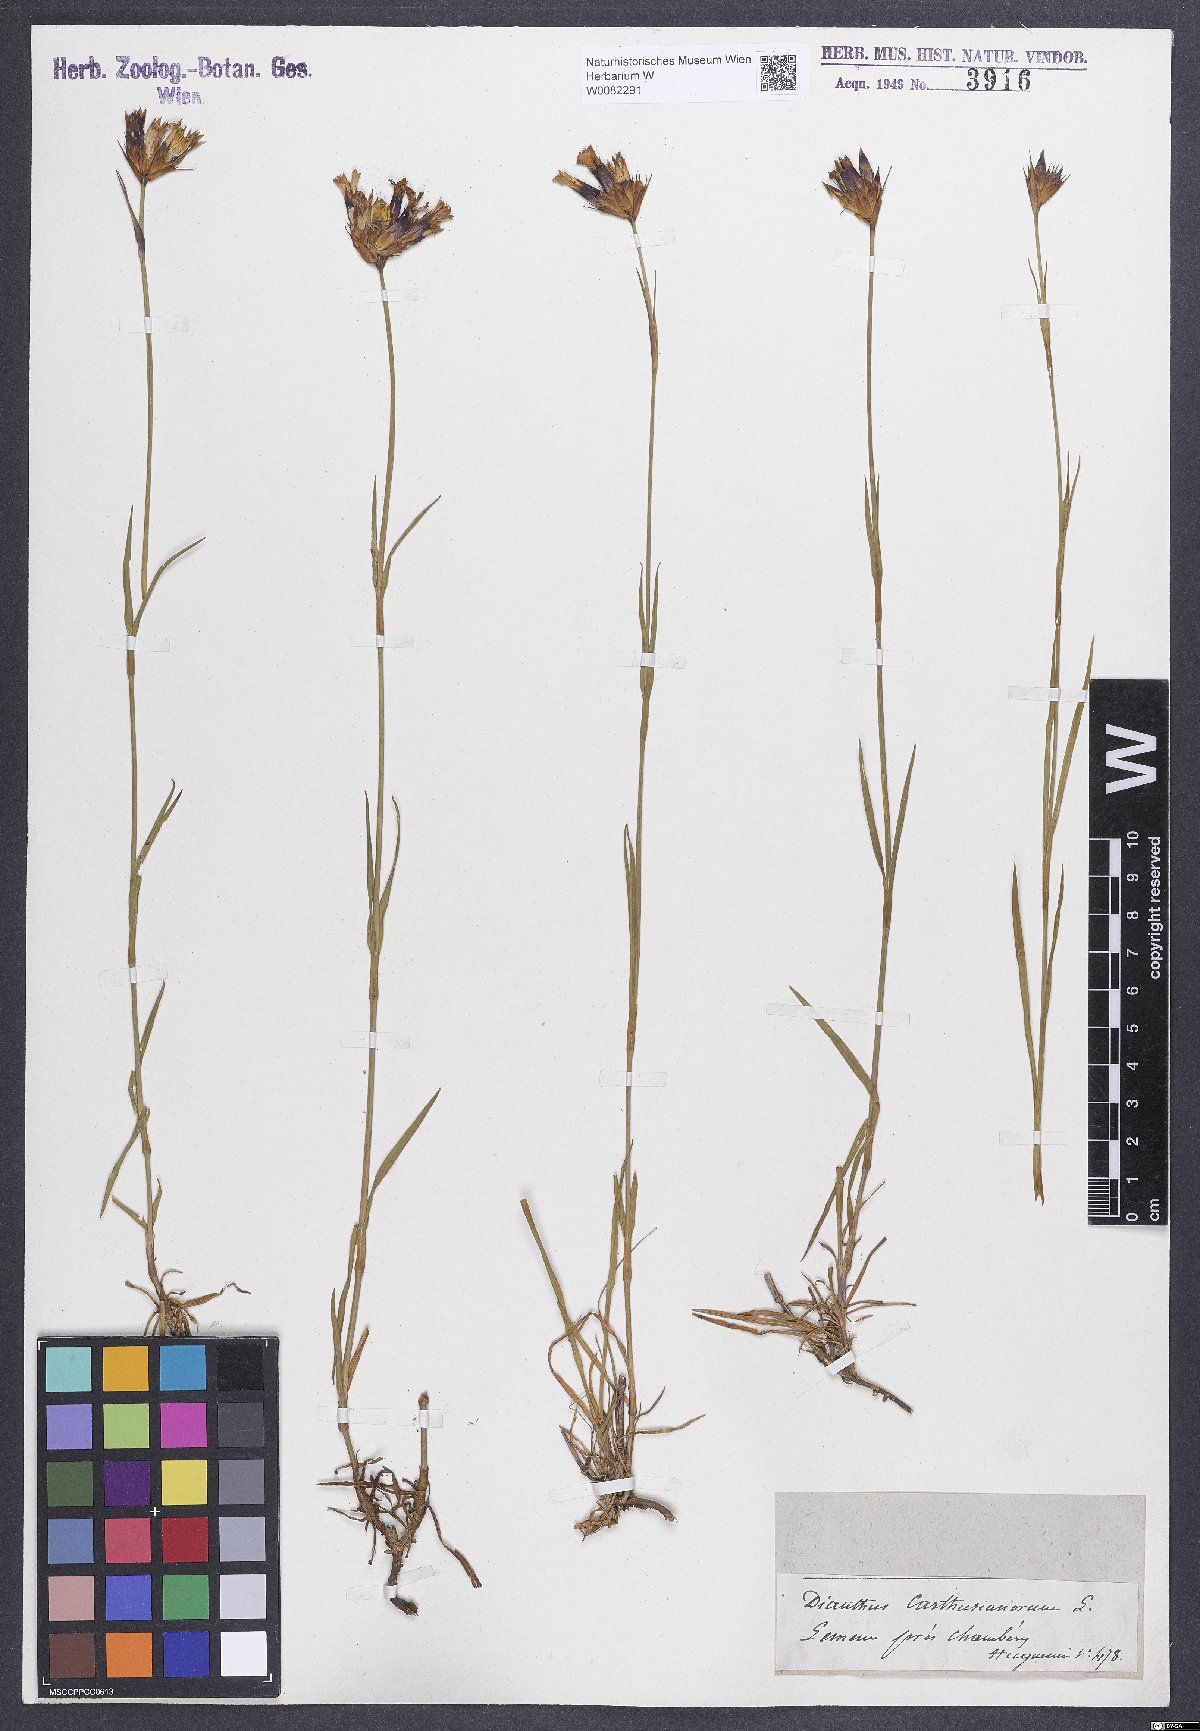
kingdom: Plantae
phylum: Tracheophyta
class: Magnoliopsida
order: Caryophyllales
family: Caryophyllaceae
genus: Dianthus
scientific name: Dianthus carthusianorum
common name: Carthusian pink
